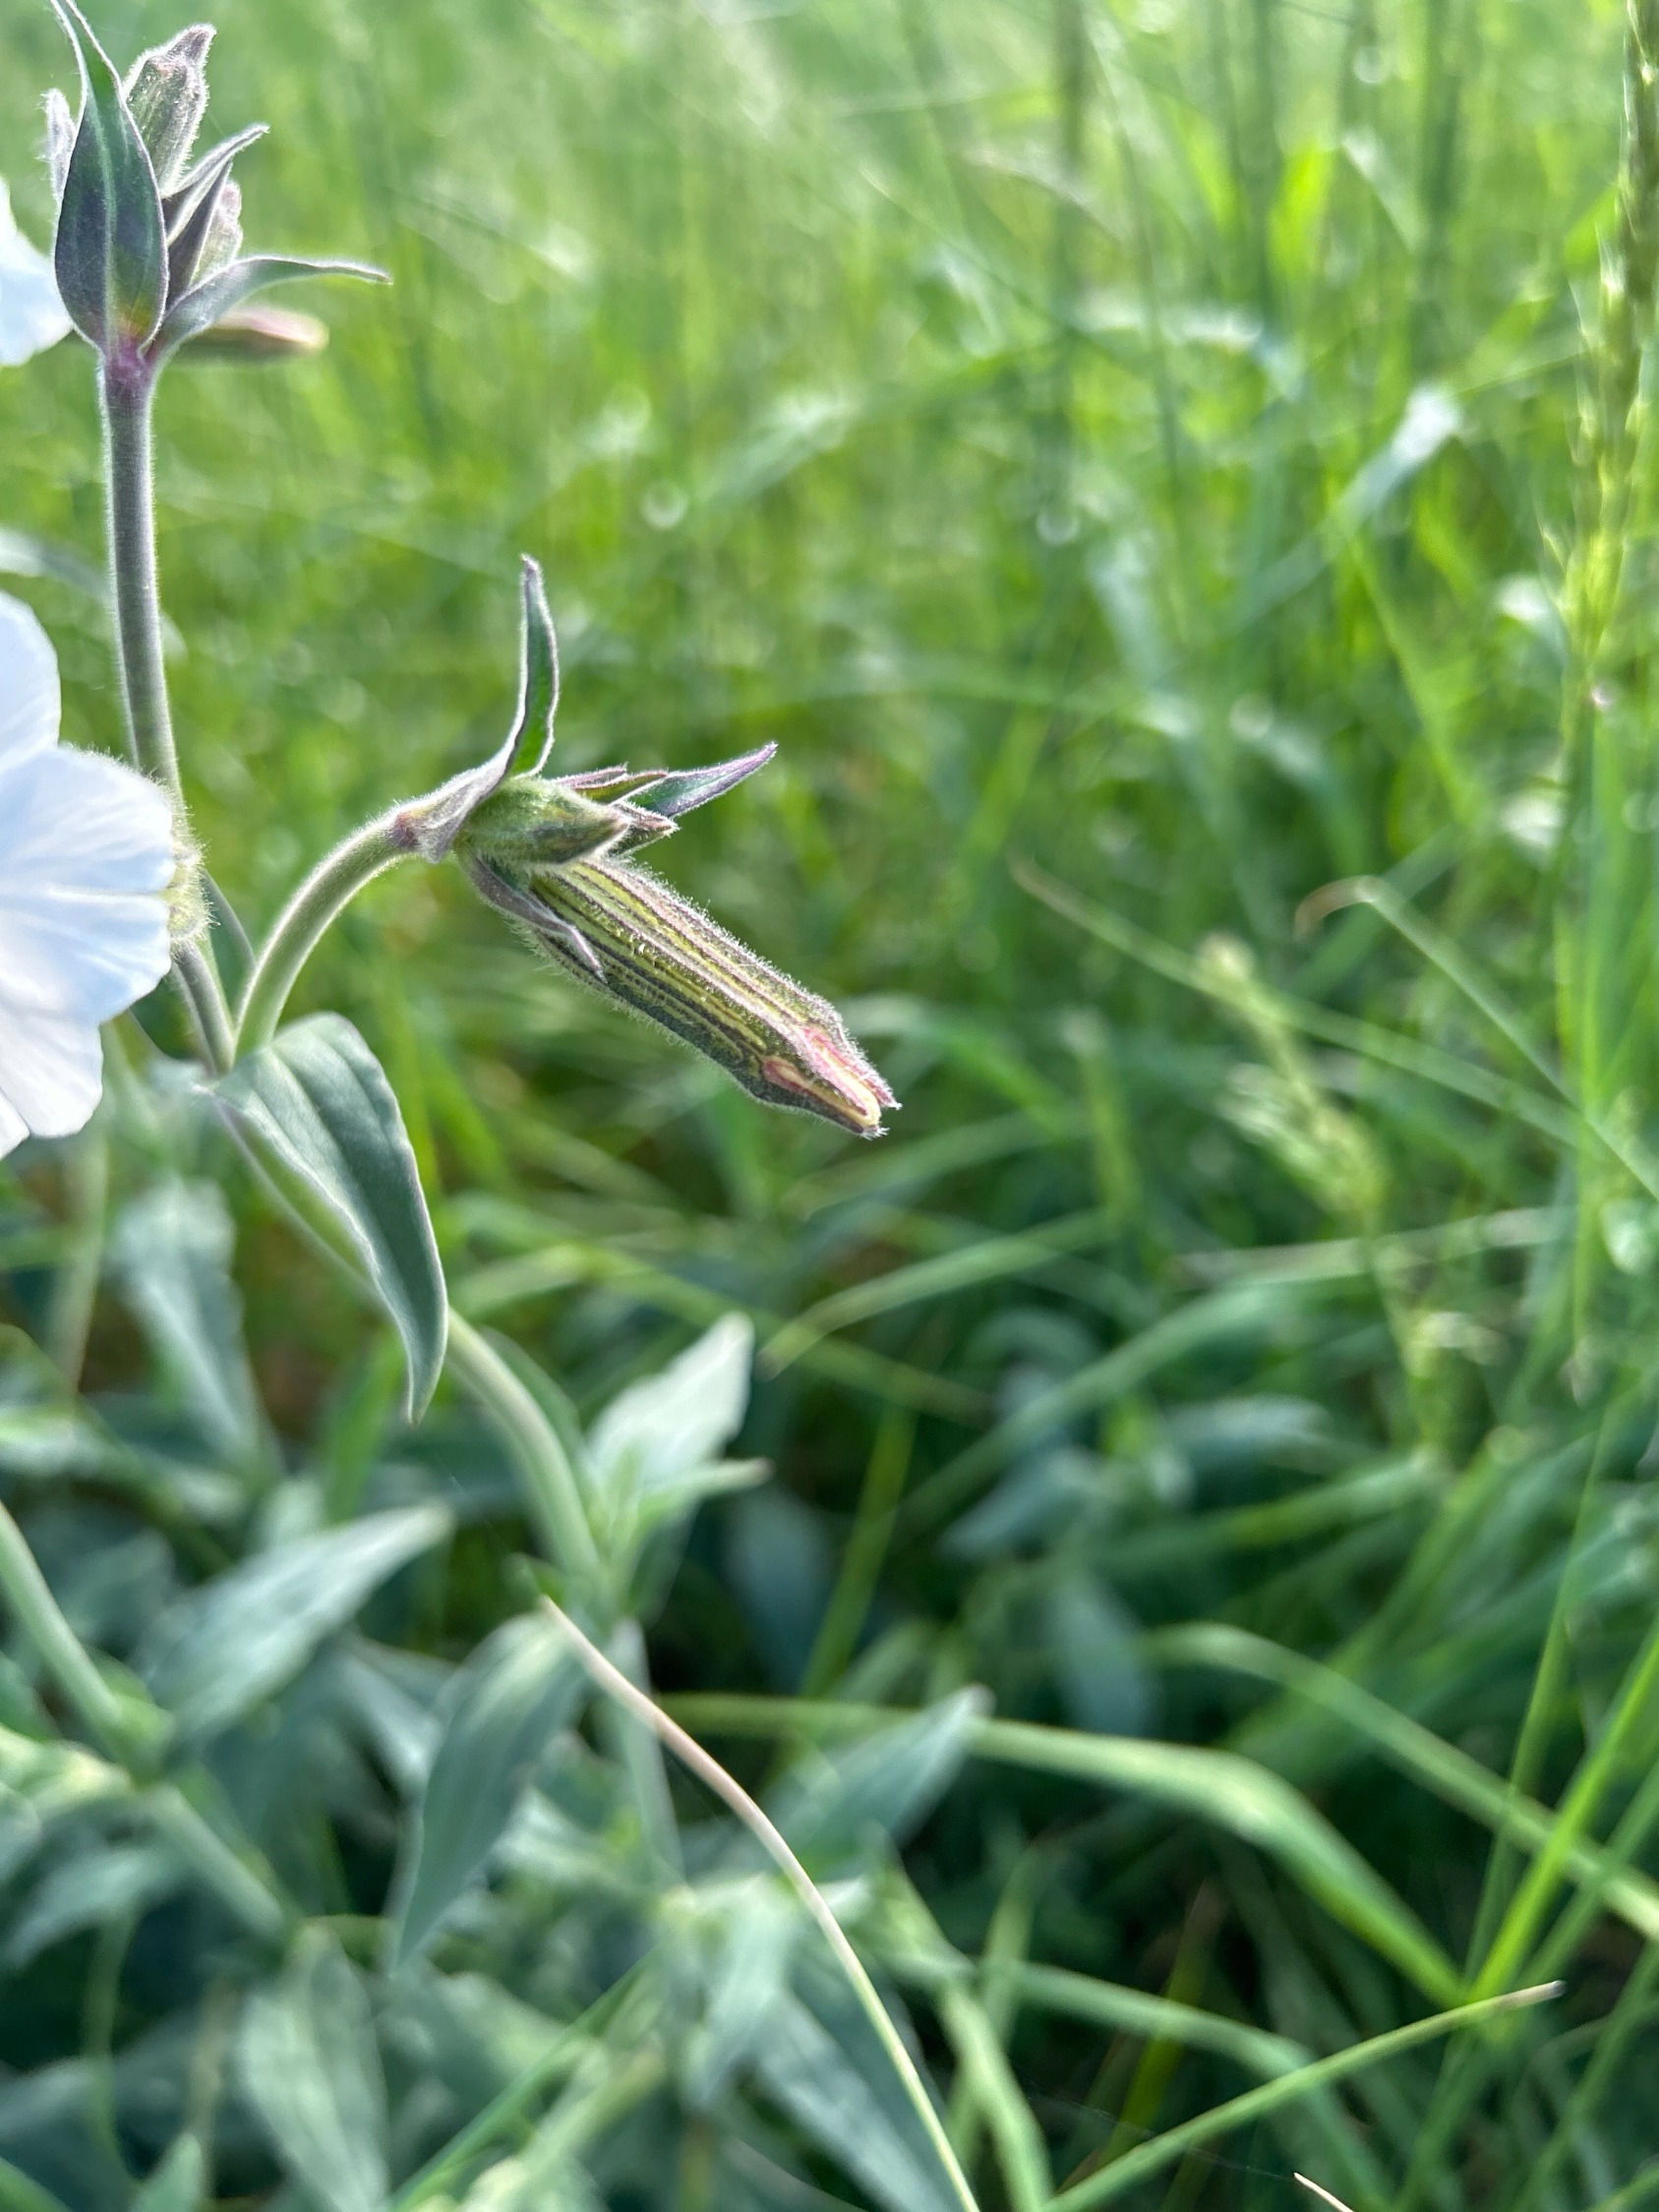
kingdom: Plantae
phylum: Tracheophyta
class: Magnoliopsida
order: Caryophyllales
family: Caryophyllaceae
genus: Silene
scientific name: Silene latifolia
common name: Aftenpragtstjerne
